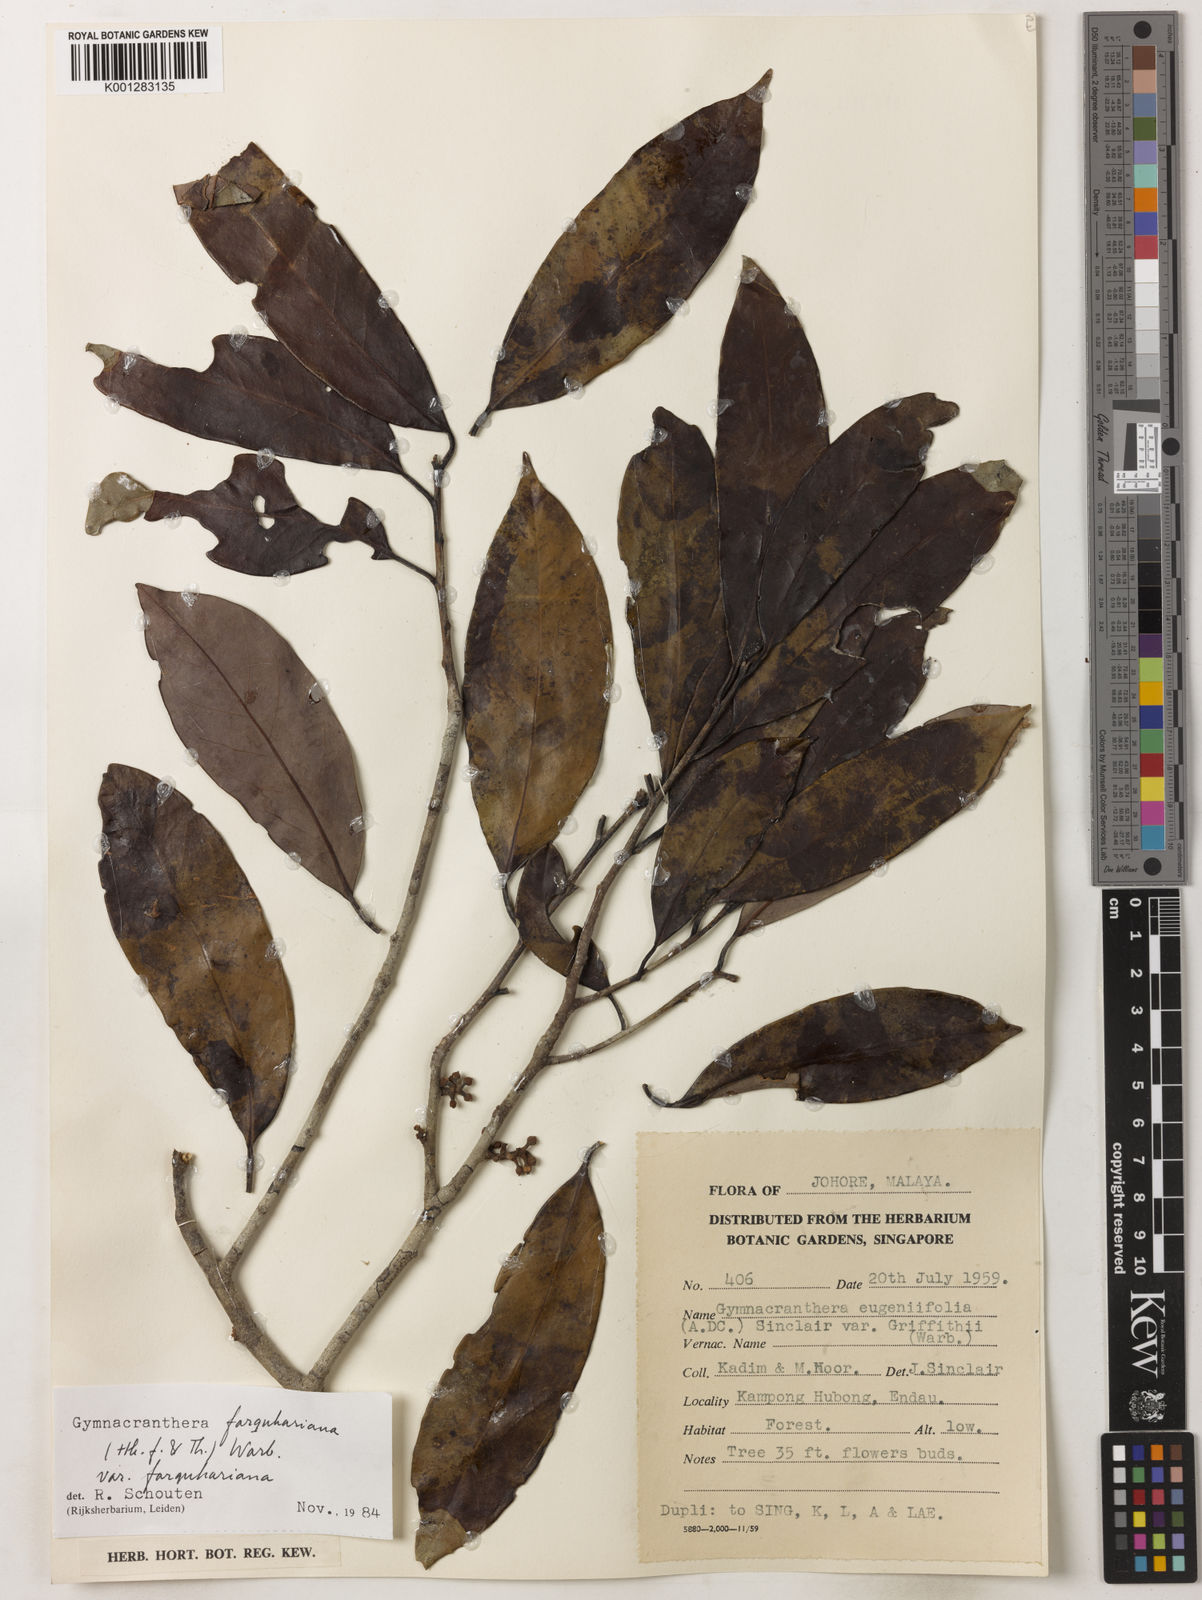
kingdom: Plantae
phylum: Tracheophyta
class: Magnoliopsida
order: Magnoliales
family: Myristicaceae
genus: Gymnacranthera
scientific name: Gymnacranthera farquhariana
